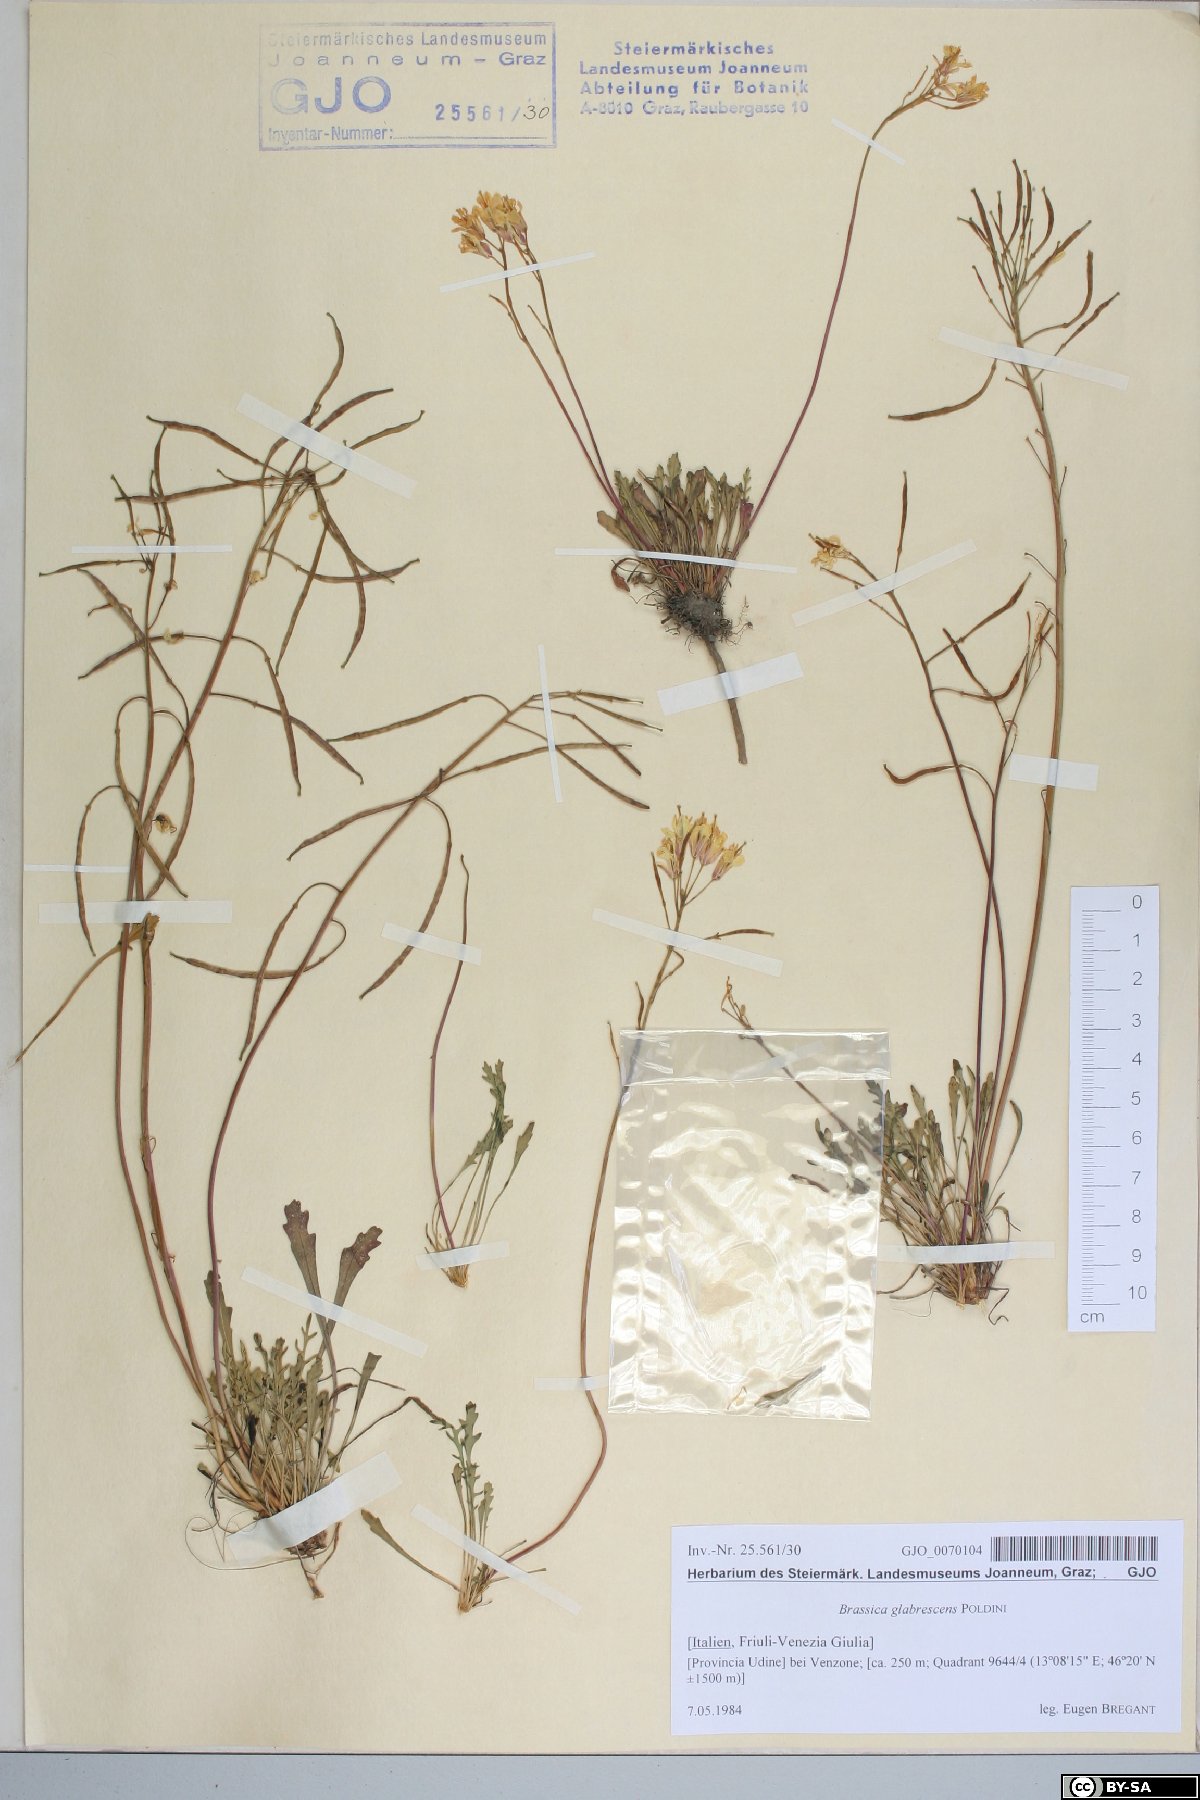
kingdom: Plantae
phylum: Tracheophyta
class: Magnoliopsida
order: Brassicales
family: Brassicaceae
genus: Brassica
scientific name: Brassica repanda
